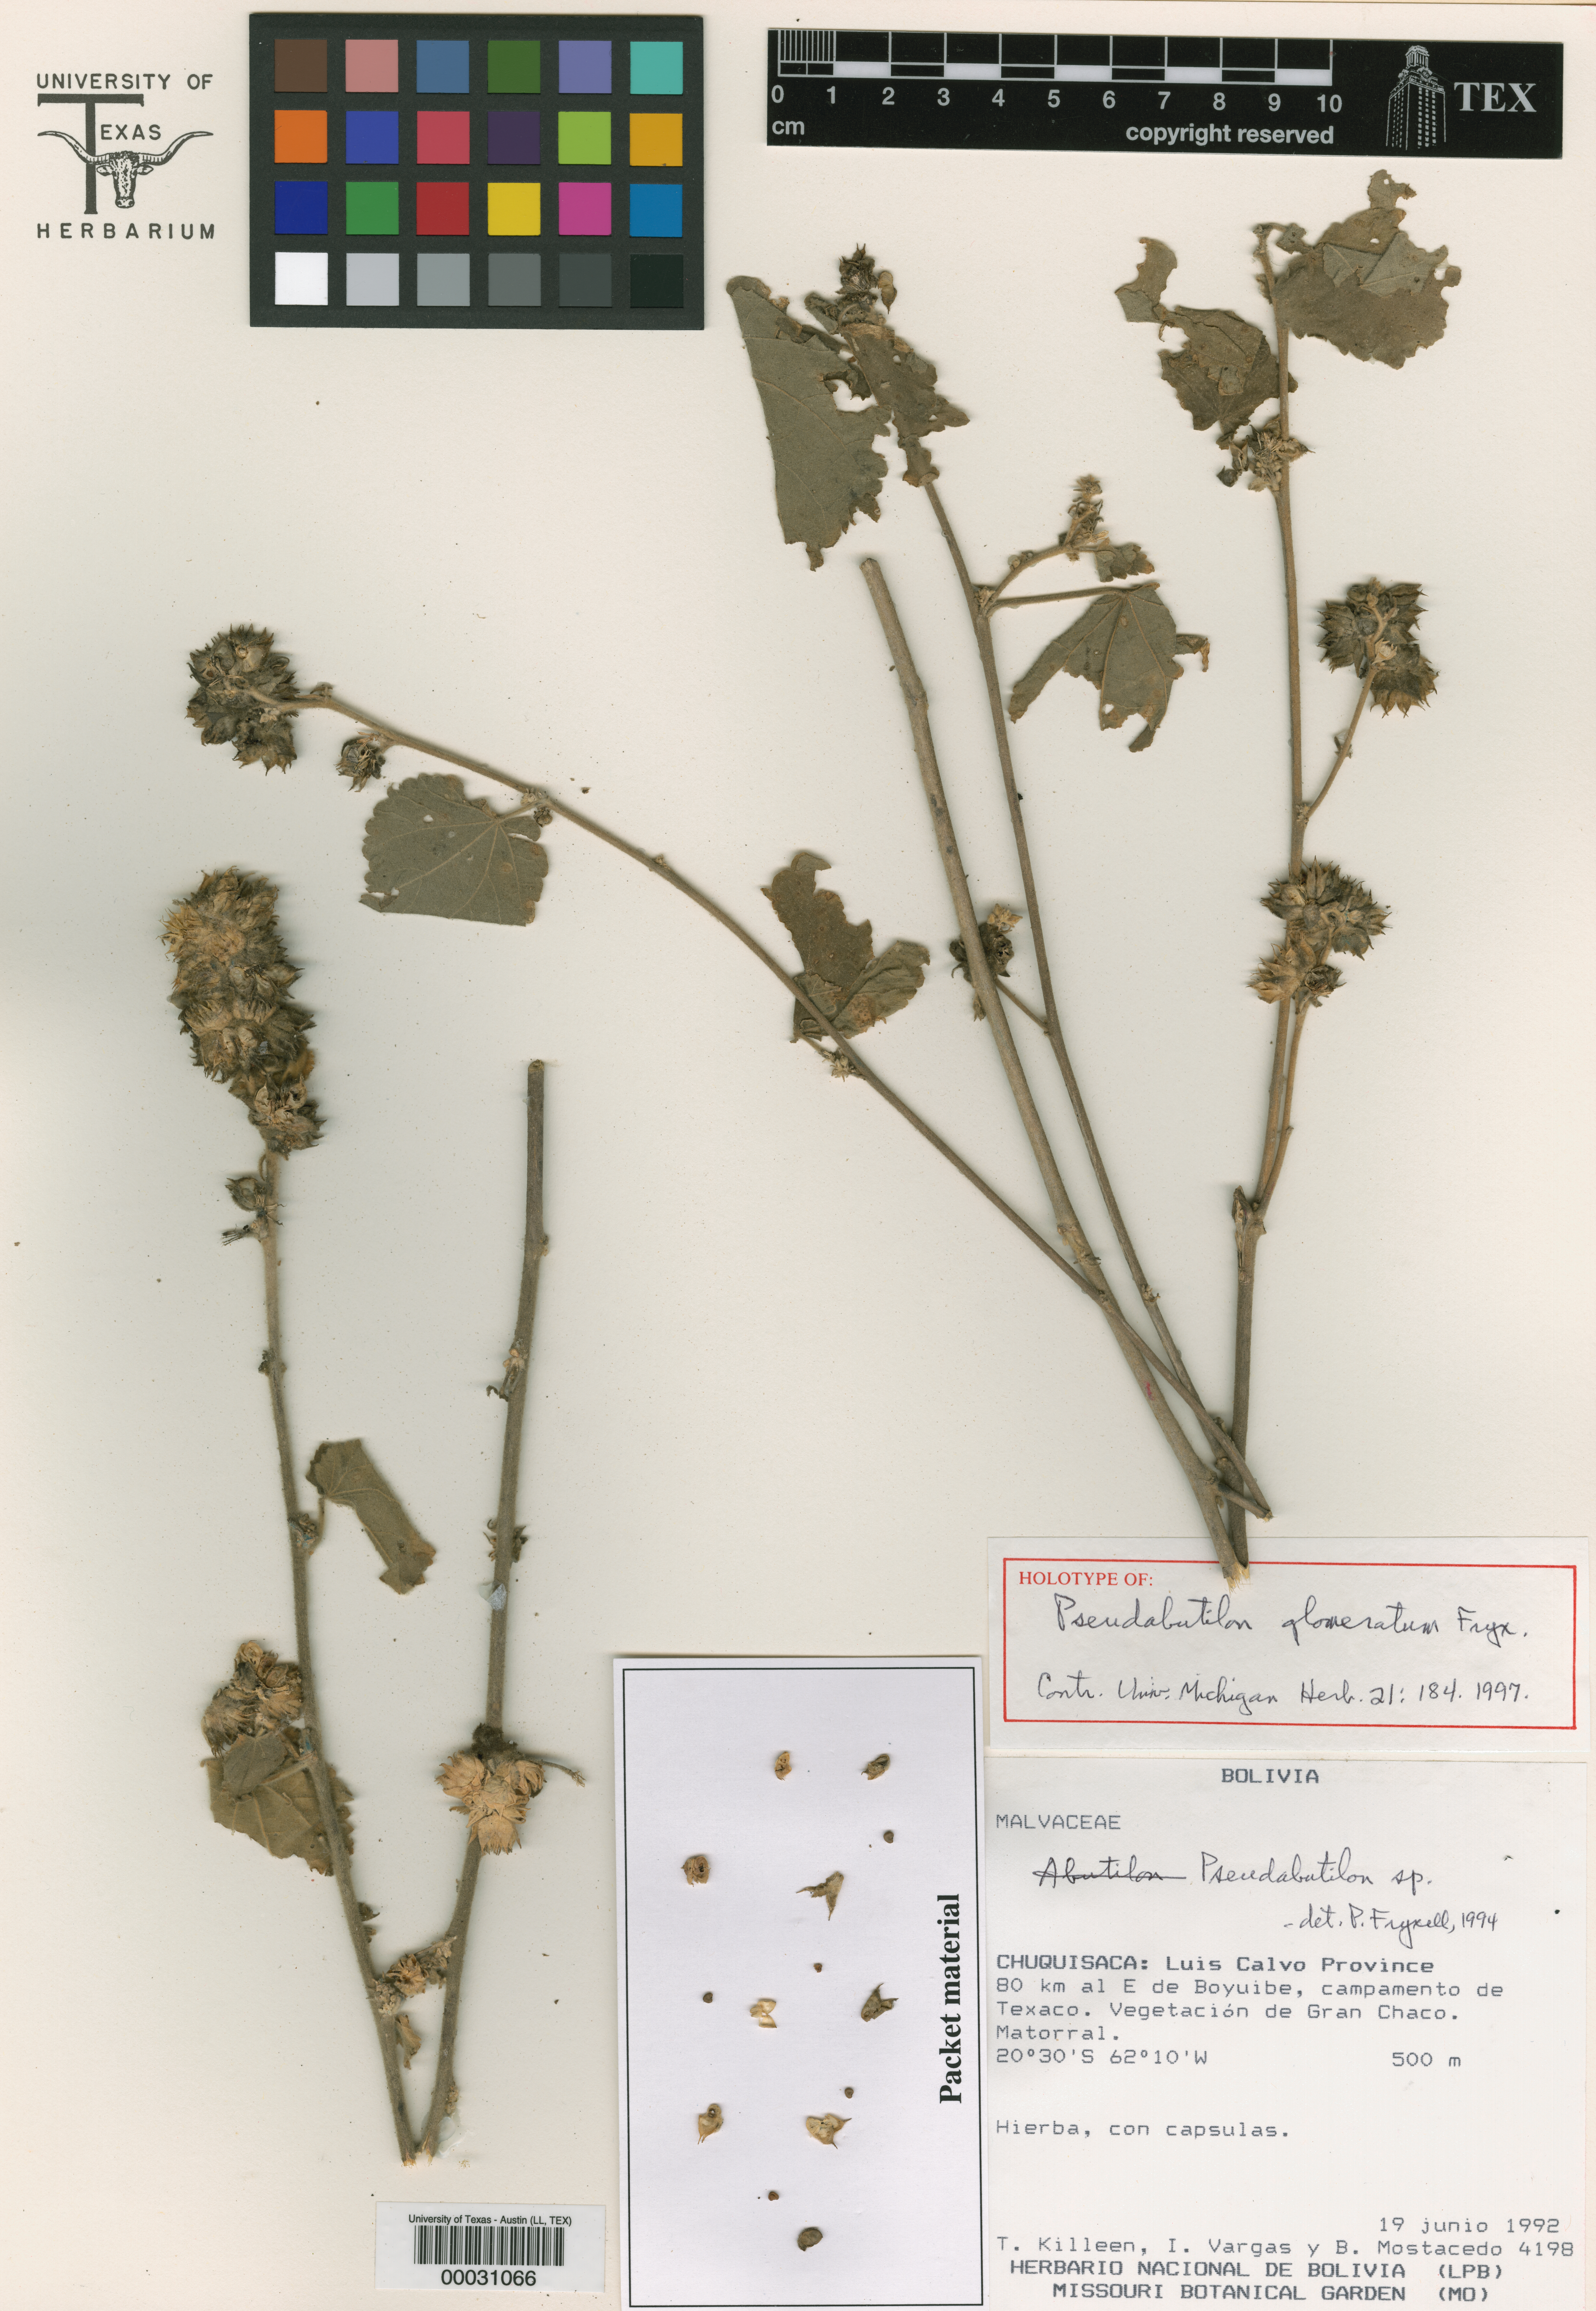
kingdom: Plantae
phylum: Tracheophyta
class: Magnoliopsida
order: Malpighiales
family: Hypericaceae
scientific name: Hypericaceae
